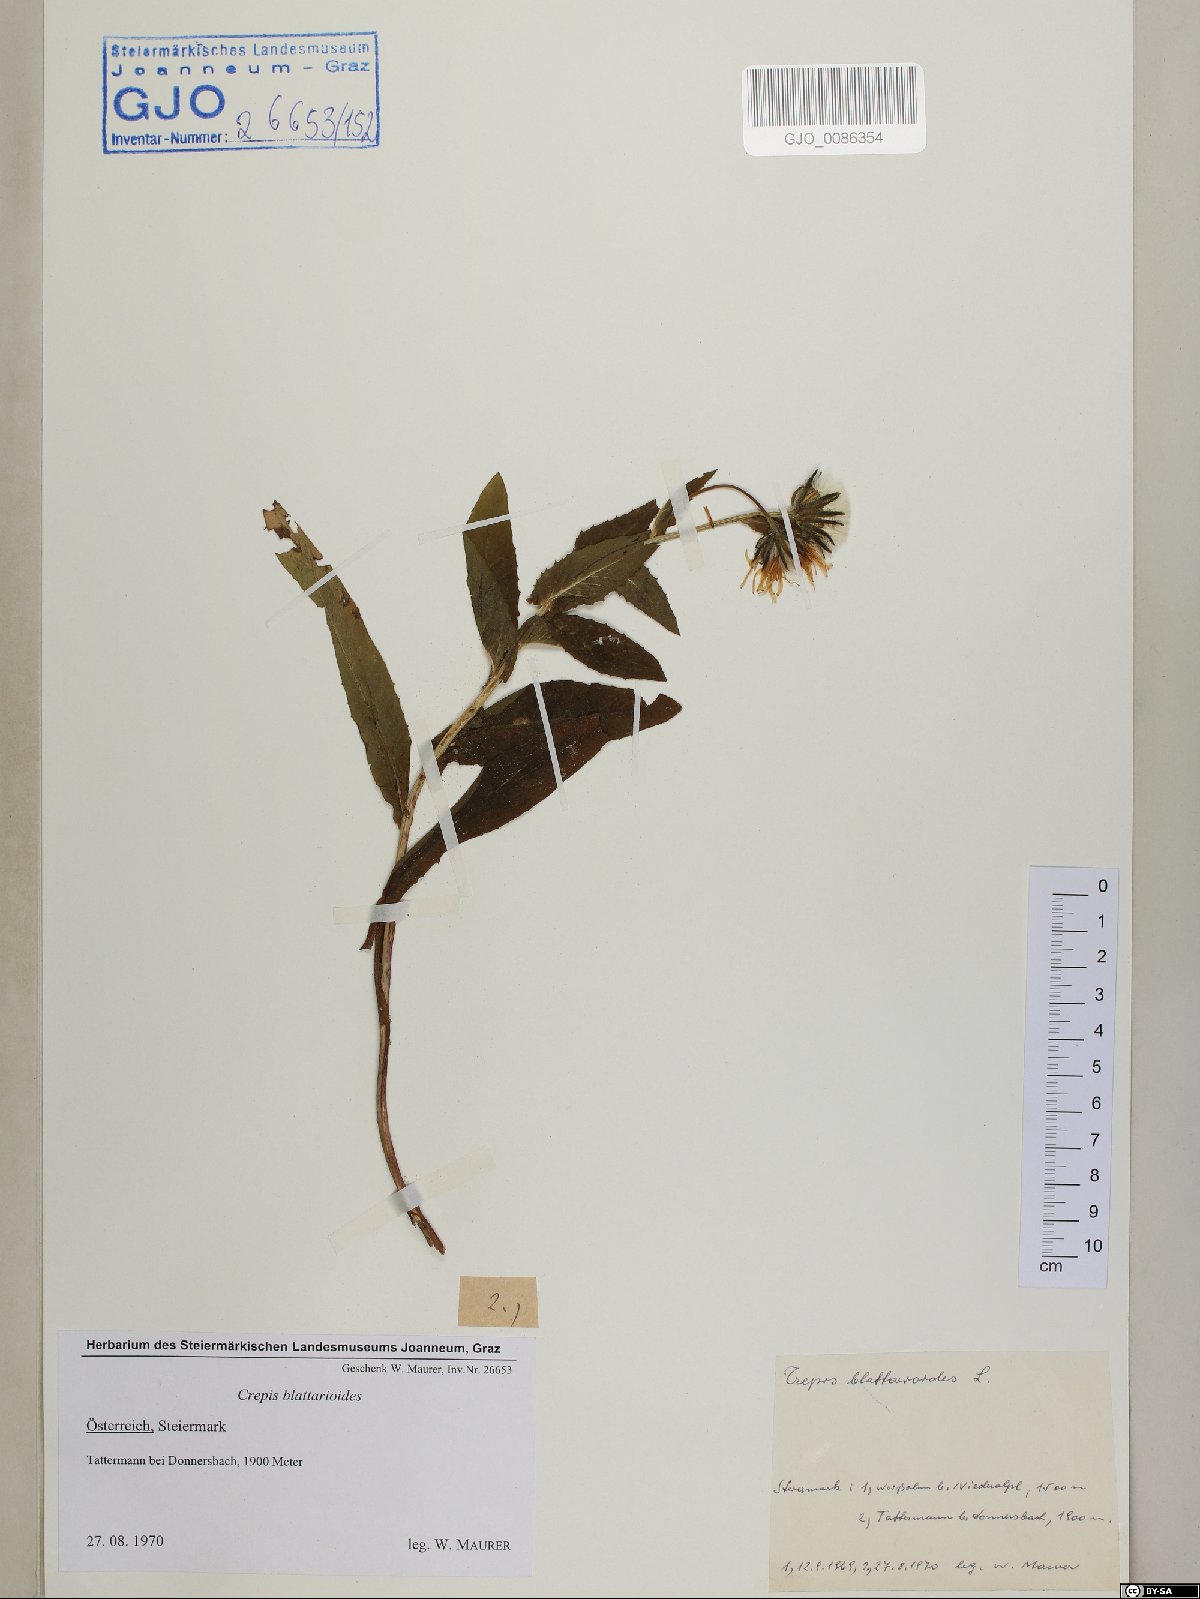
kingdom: Plantae
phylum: Tracheophyta
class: Magnoliopsida
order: Asterales
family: Asteraceae
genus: Crepis
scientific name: Crepis blattarioides
